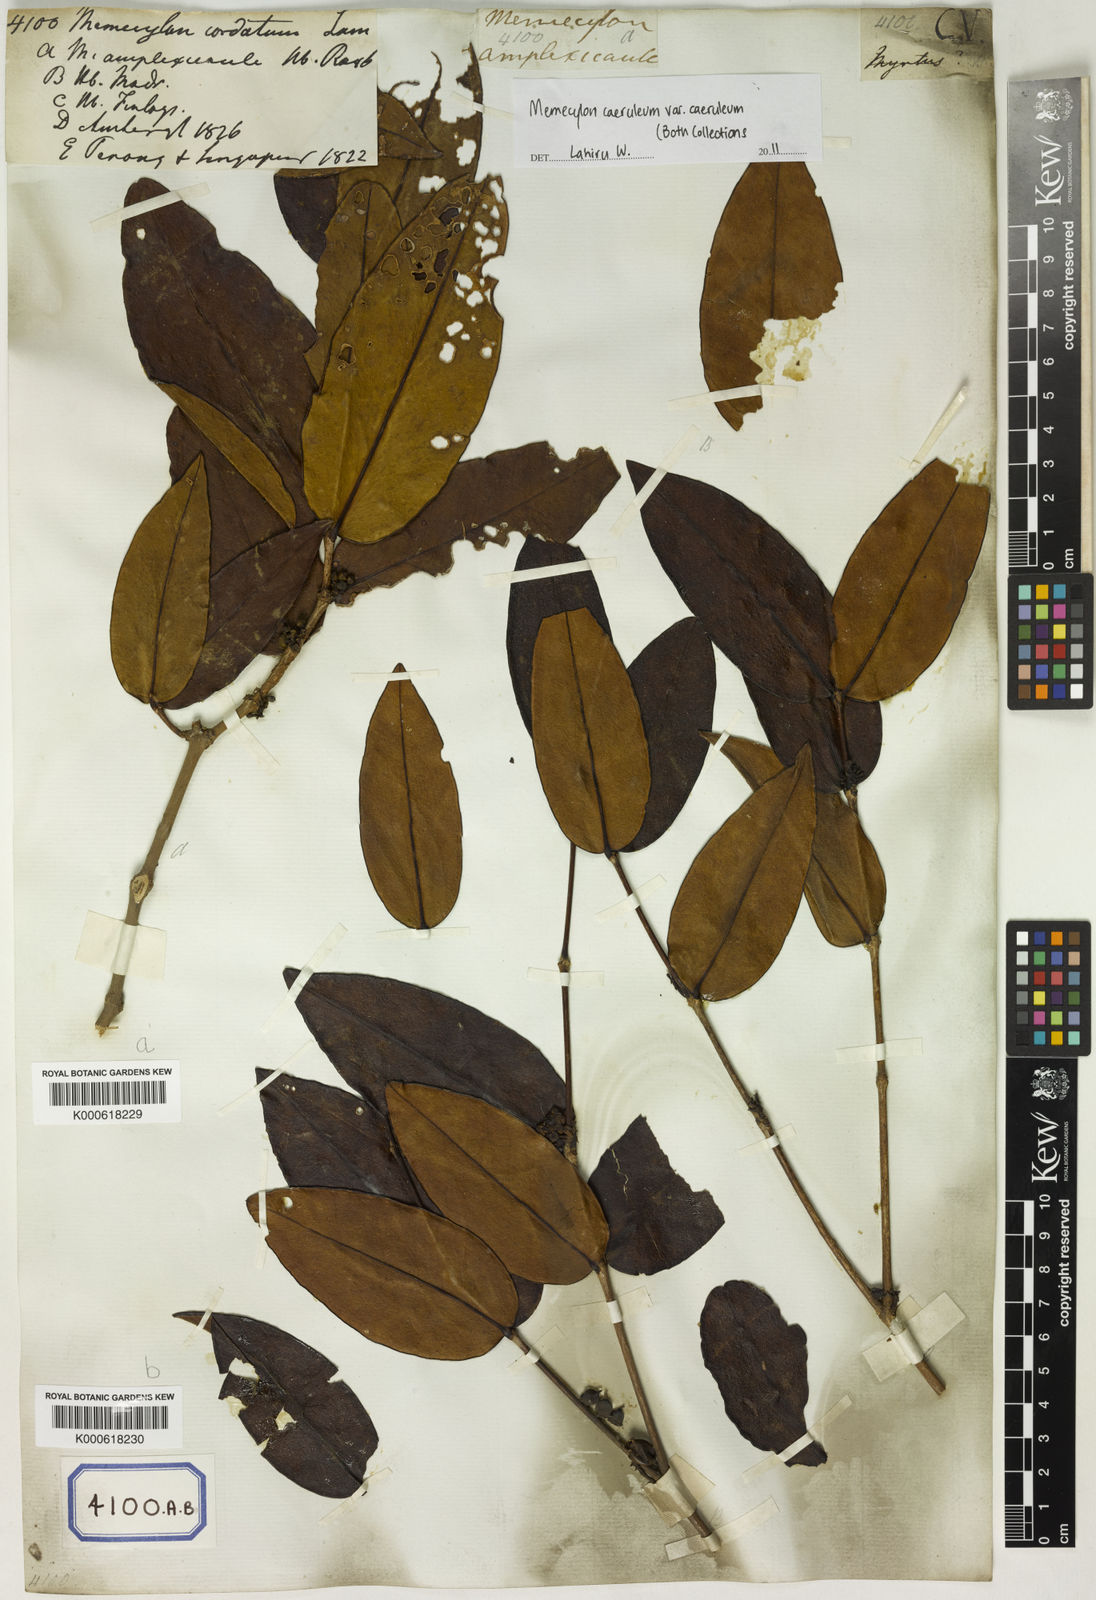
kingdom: Plantae
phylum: Tracheophyta
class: Magnoliopsida
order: Myrtales
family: Melastomataceae
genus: Memecylon
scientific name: Memecylon caeruleum
